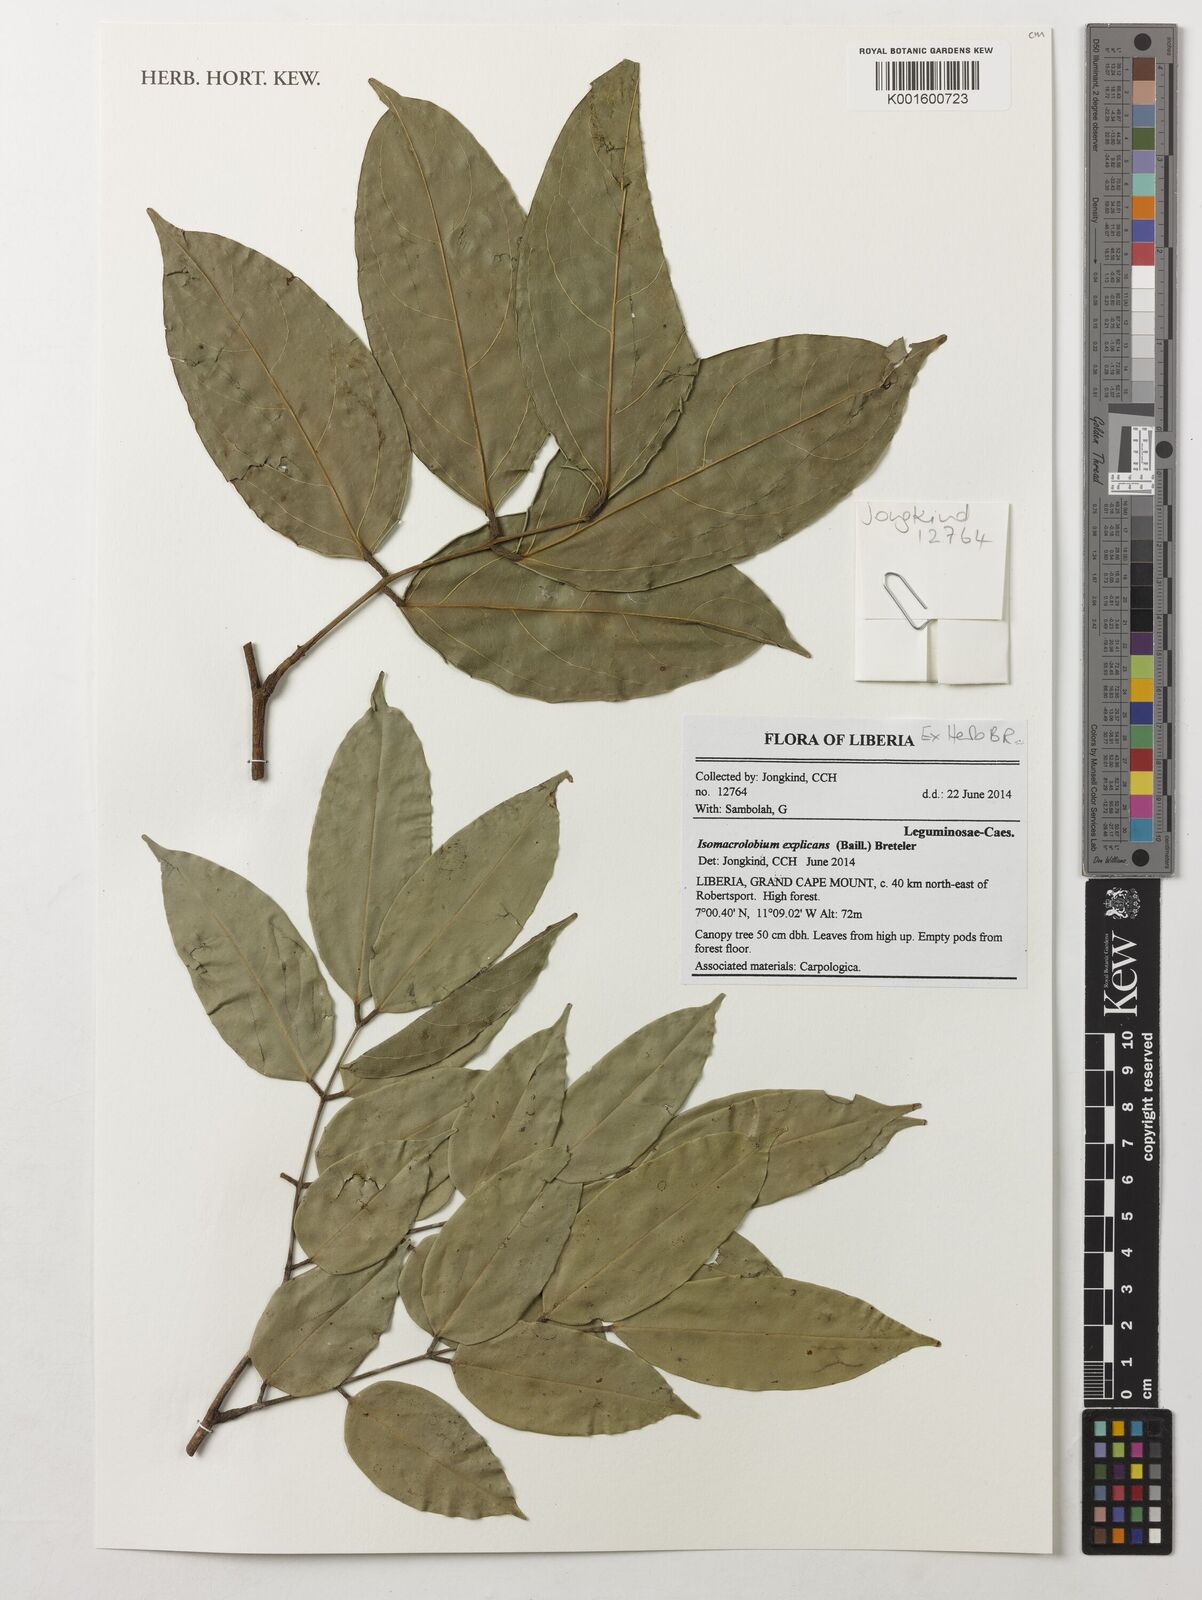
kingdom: Plantae
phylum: Tracheophyta
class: Magnoliopsida
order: Fabales
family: Fabaceae
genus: Englerodendron
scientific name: Englerodendron explicans
